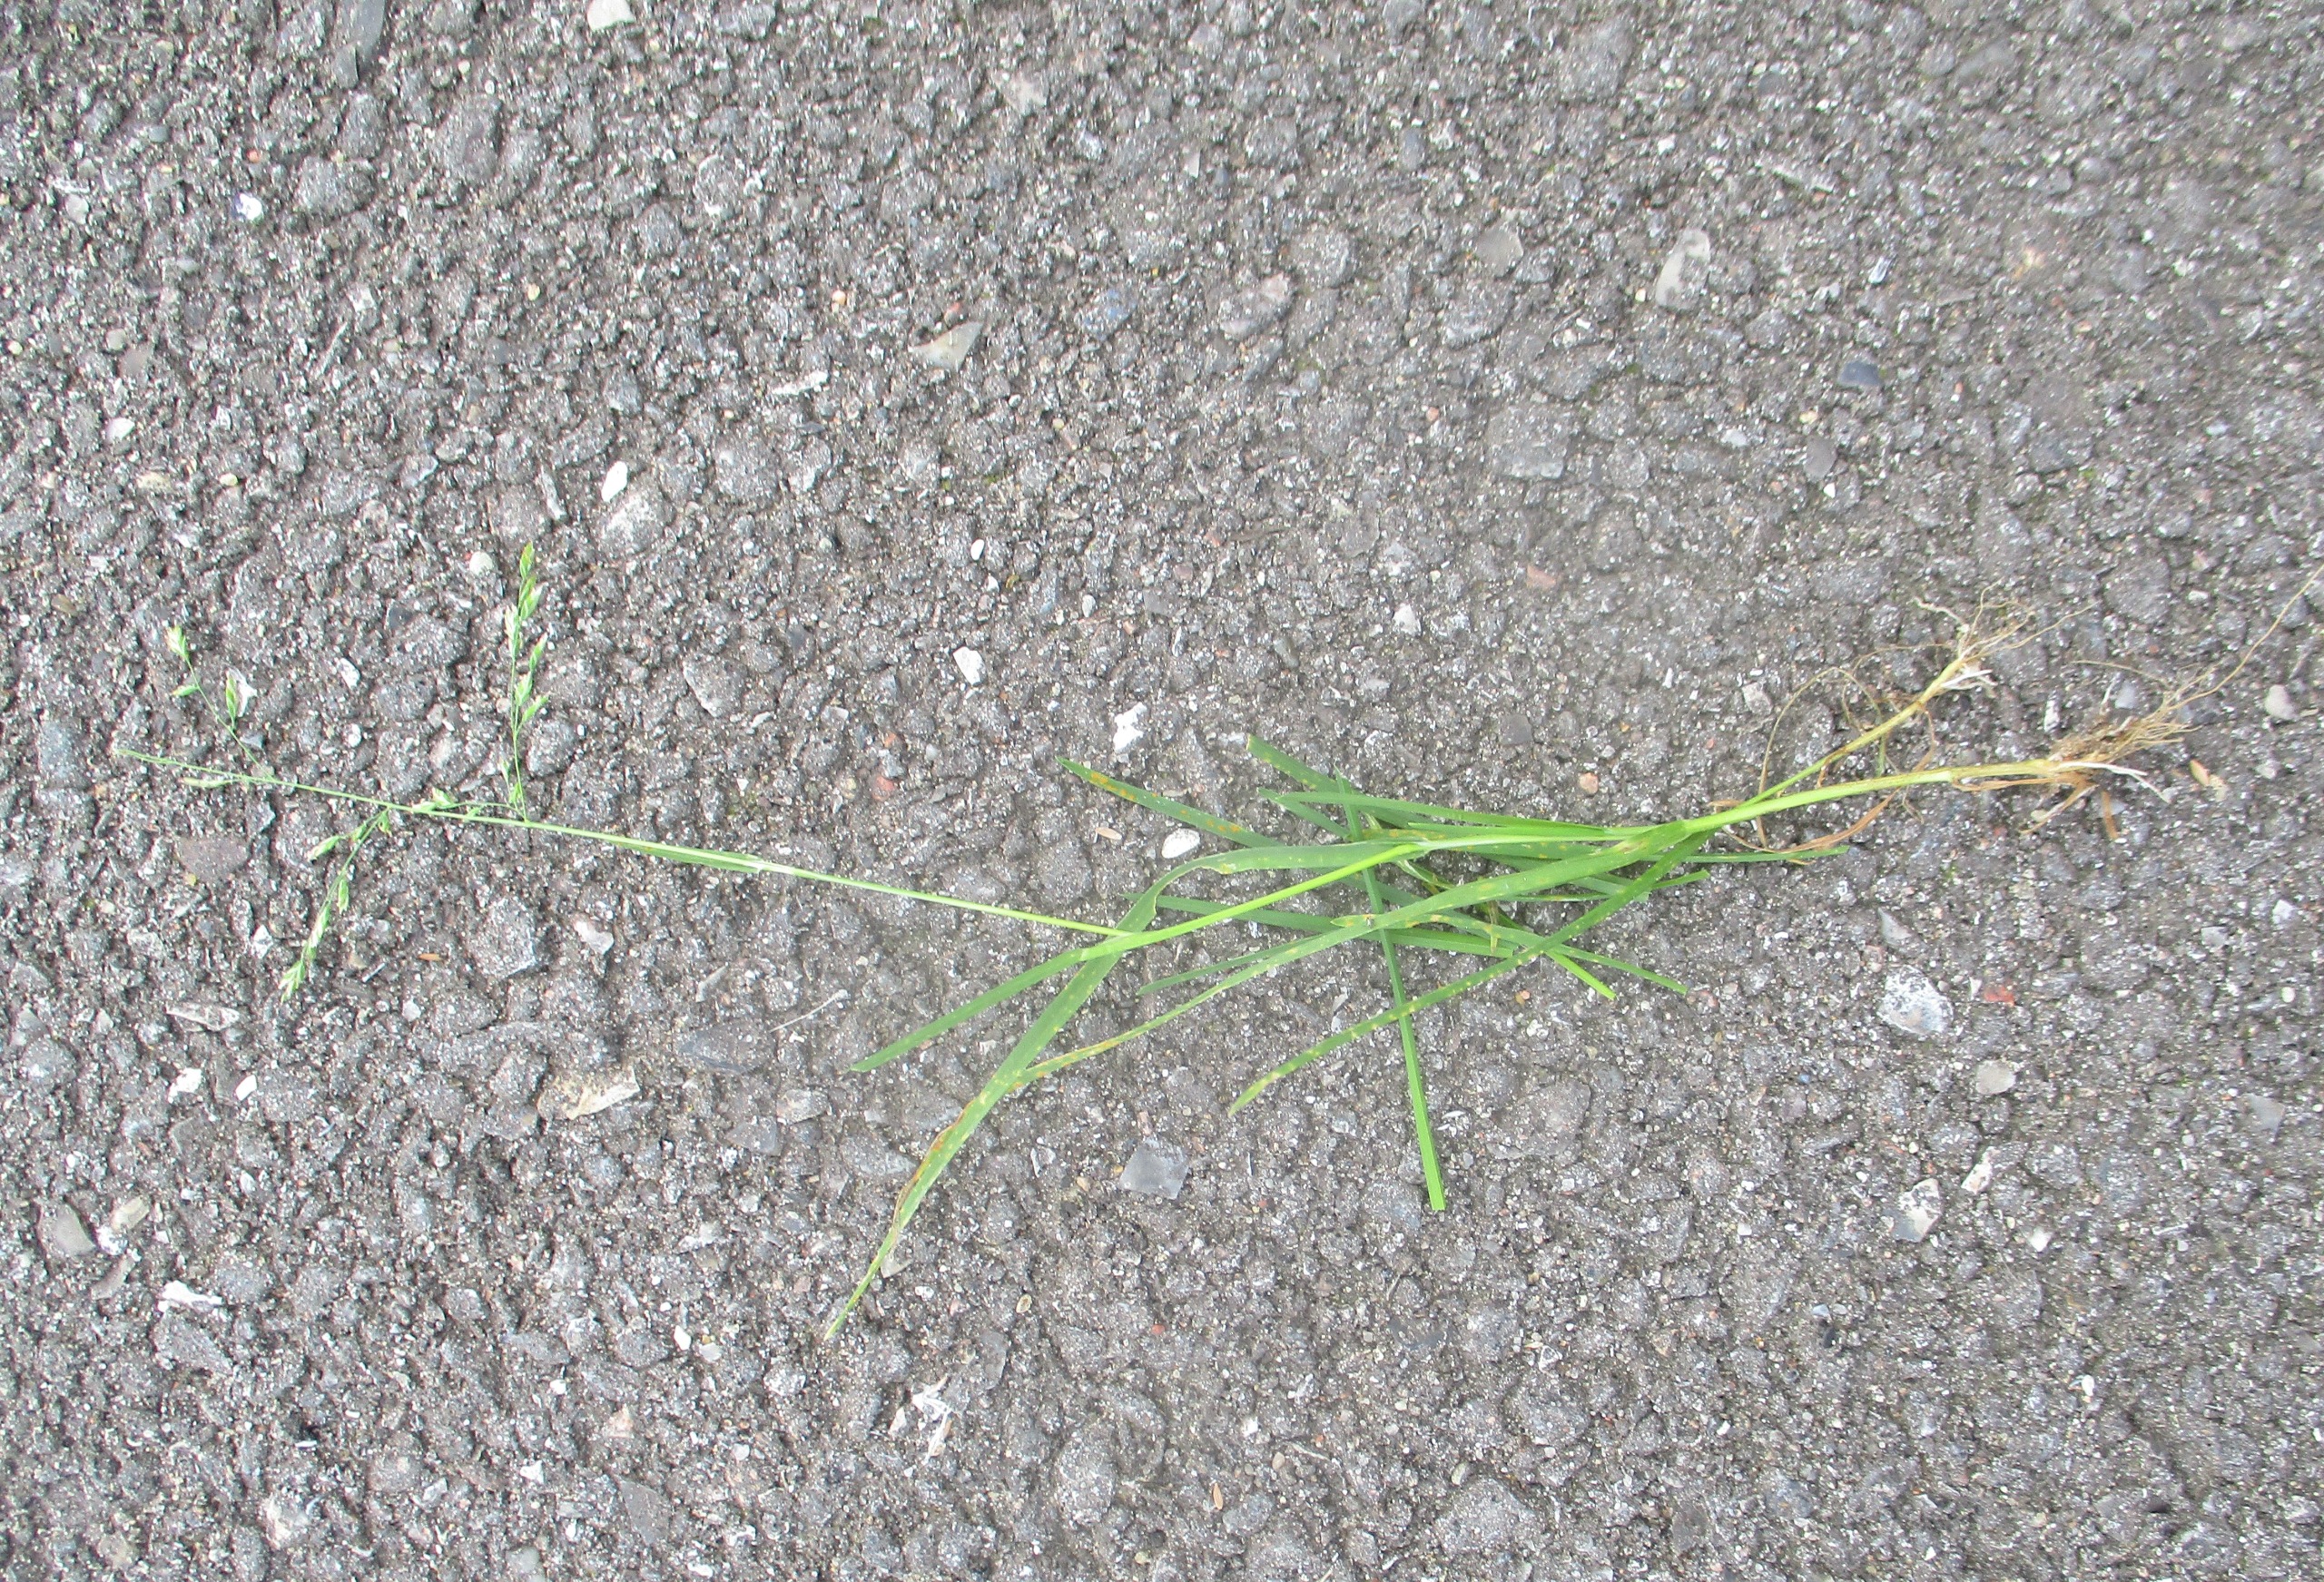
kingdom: Plantae
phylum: Tracheophyta
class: Liliopsida
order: Poales
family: Poaceae
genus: Poa
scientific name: Poa annua
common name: Enårig rapgræs
